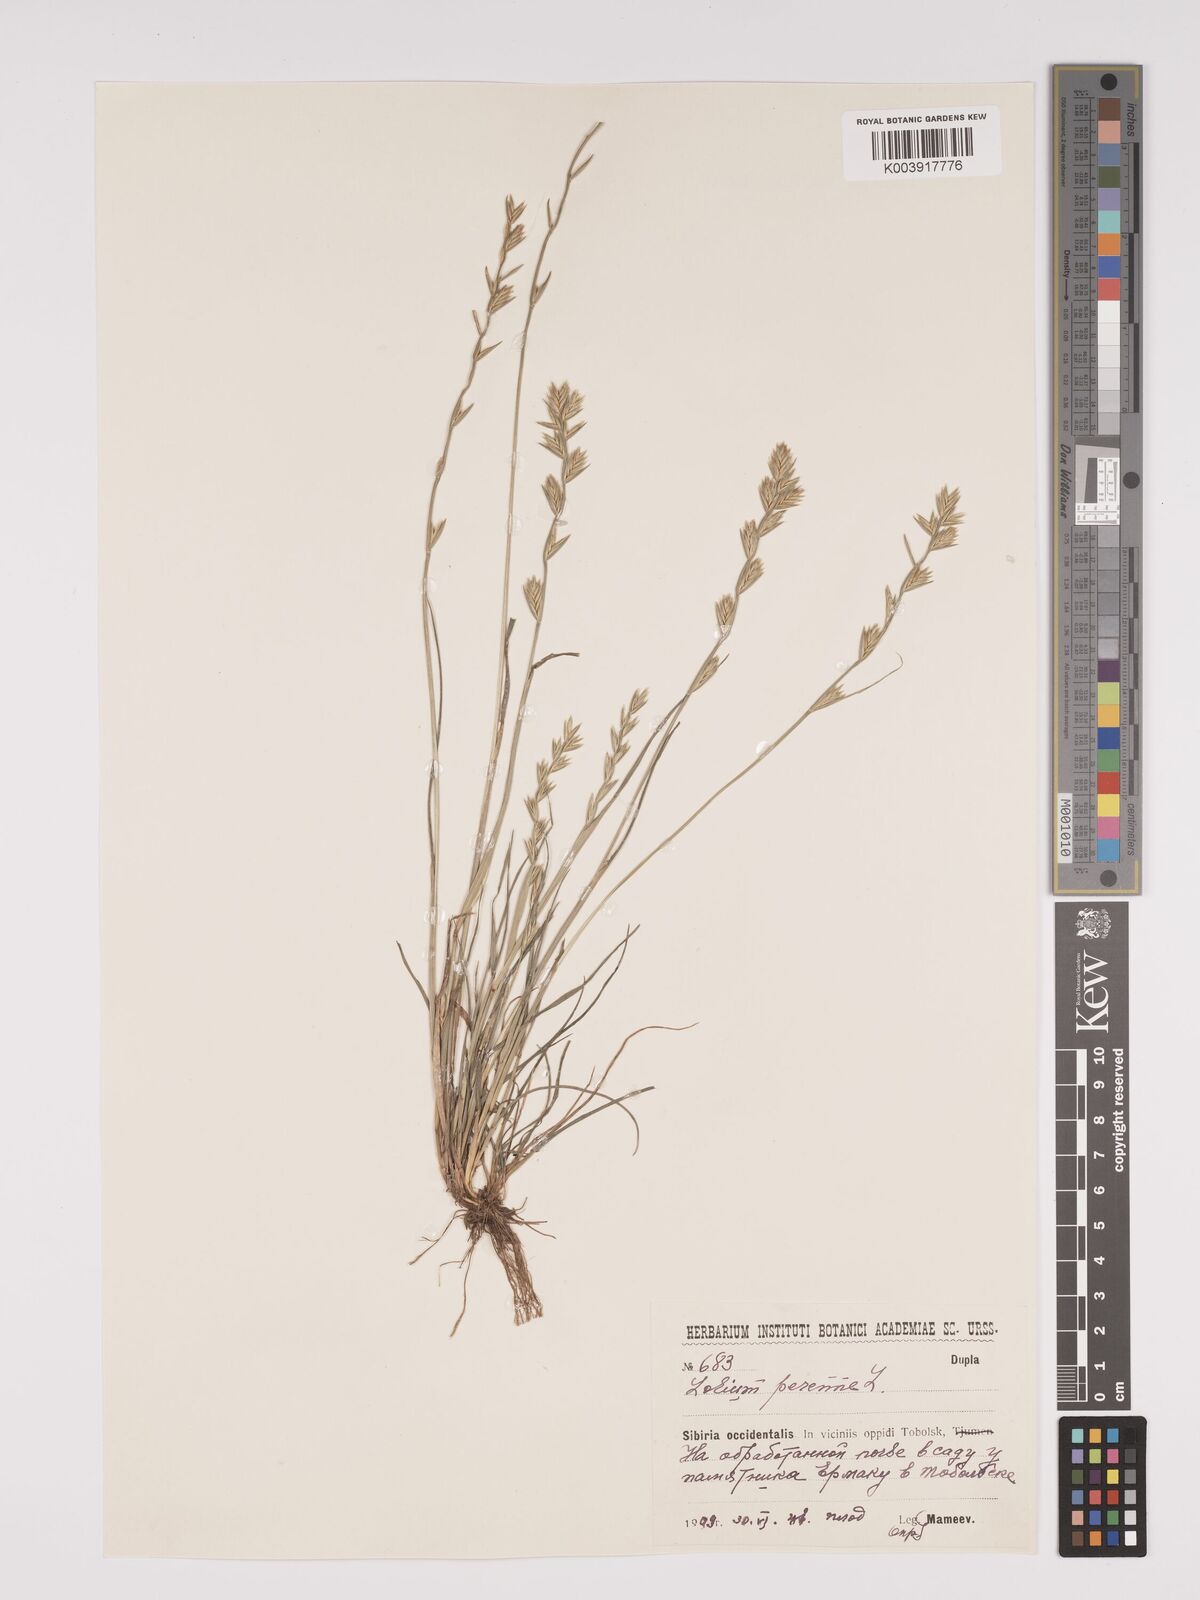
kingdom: Plantae
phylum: Tracheophyta
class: Liliopsida
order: Poales
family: Poaceae
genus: Lolium
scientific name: Lolium perenne
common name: Perennial ryegrass
